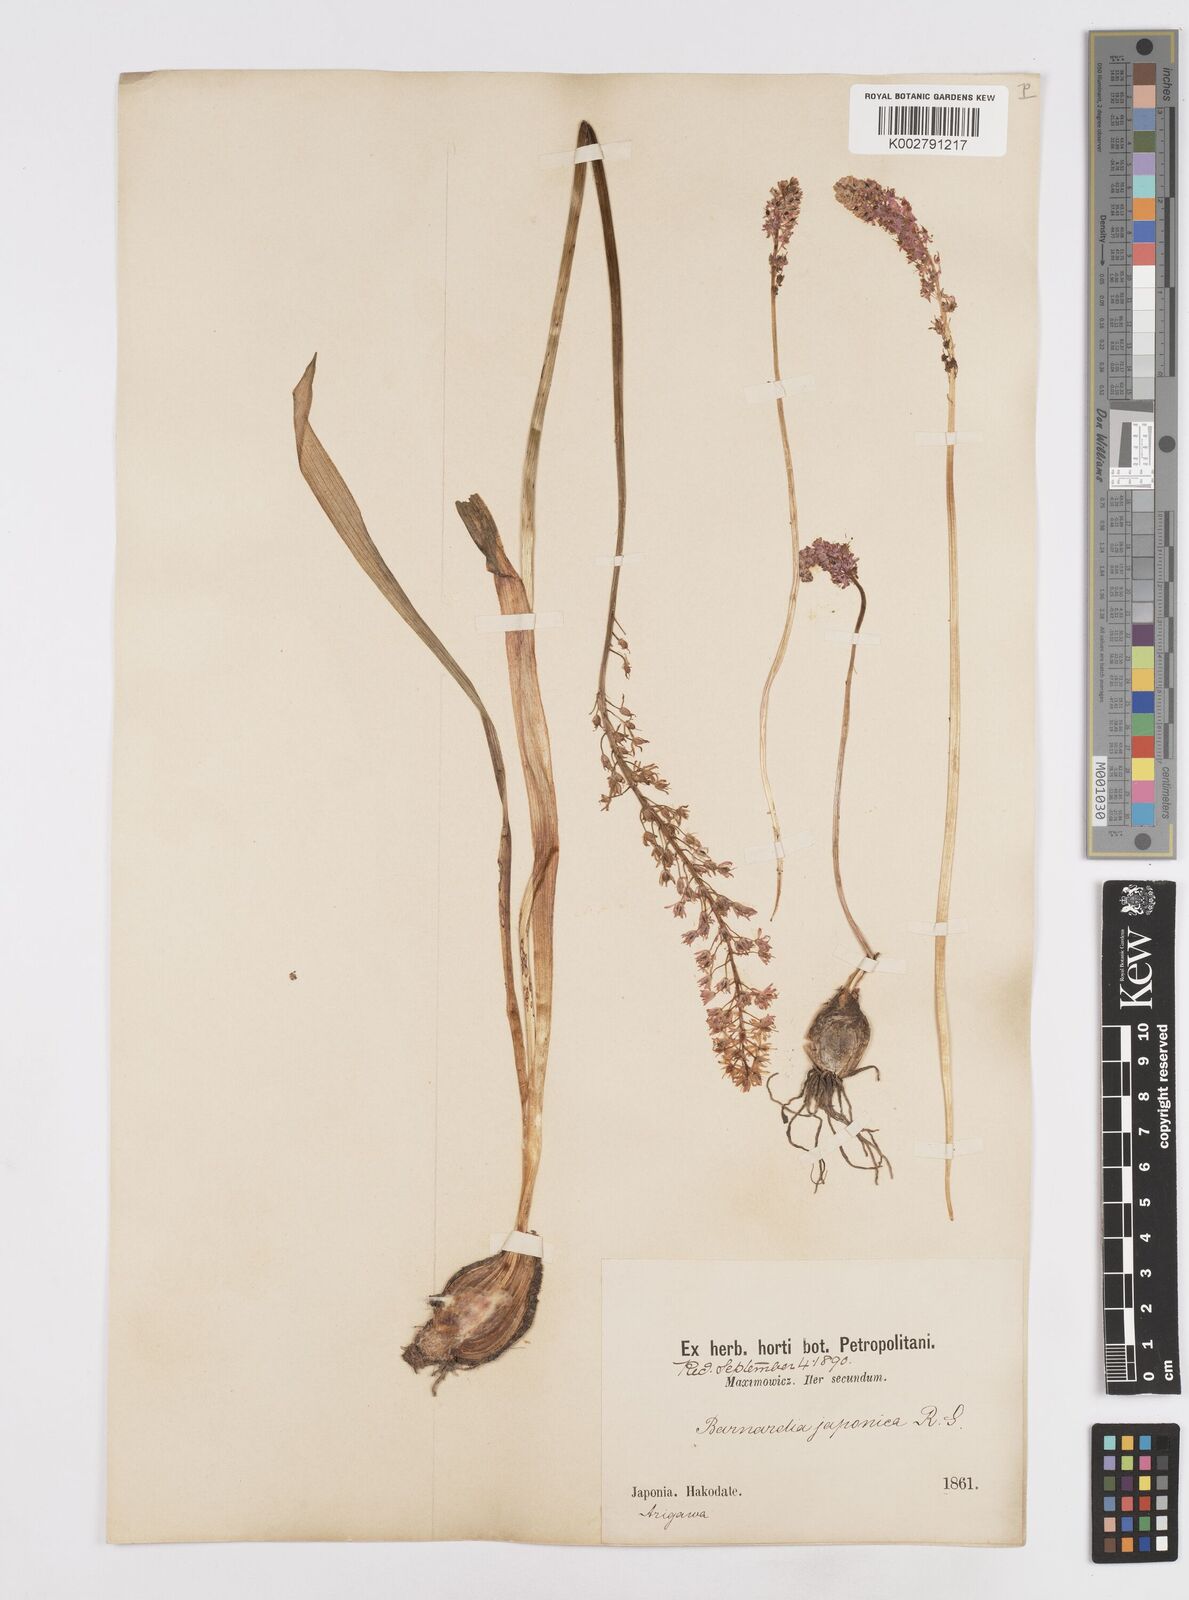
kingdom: Plantae
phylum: Tracheophyta
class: Liliopsida
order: Liliales
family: Melanthiaceae
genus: Helonias
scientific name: Helonias breviscapa
